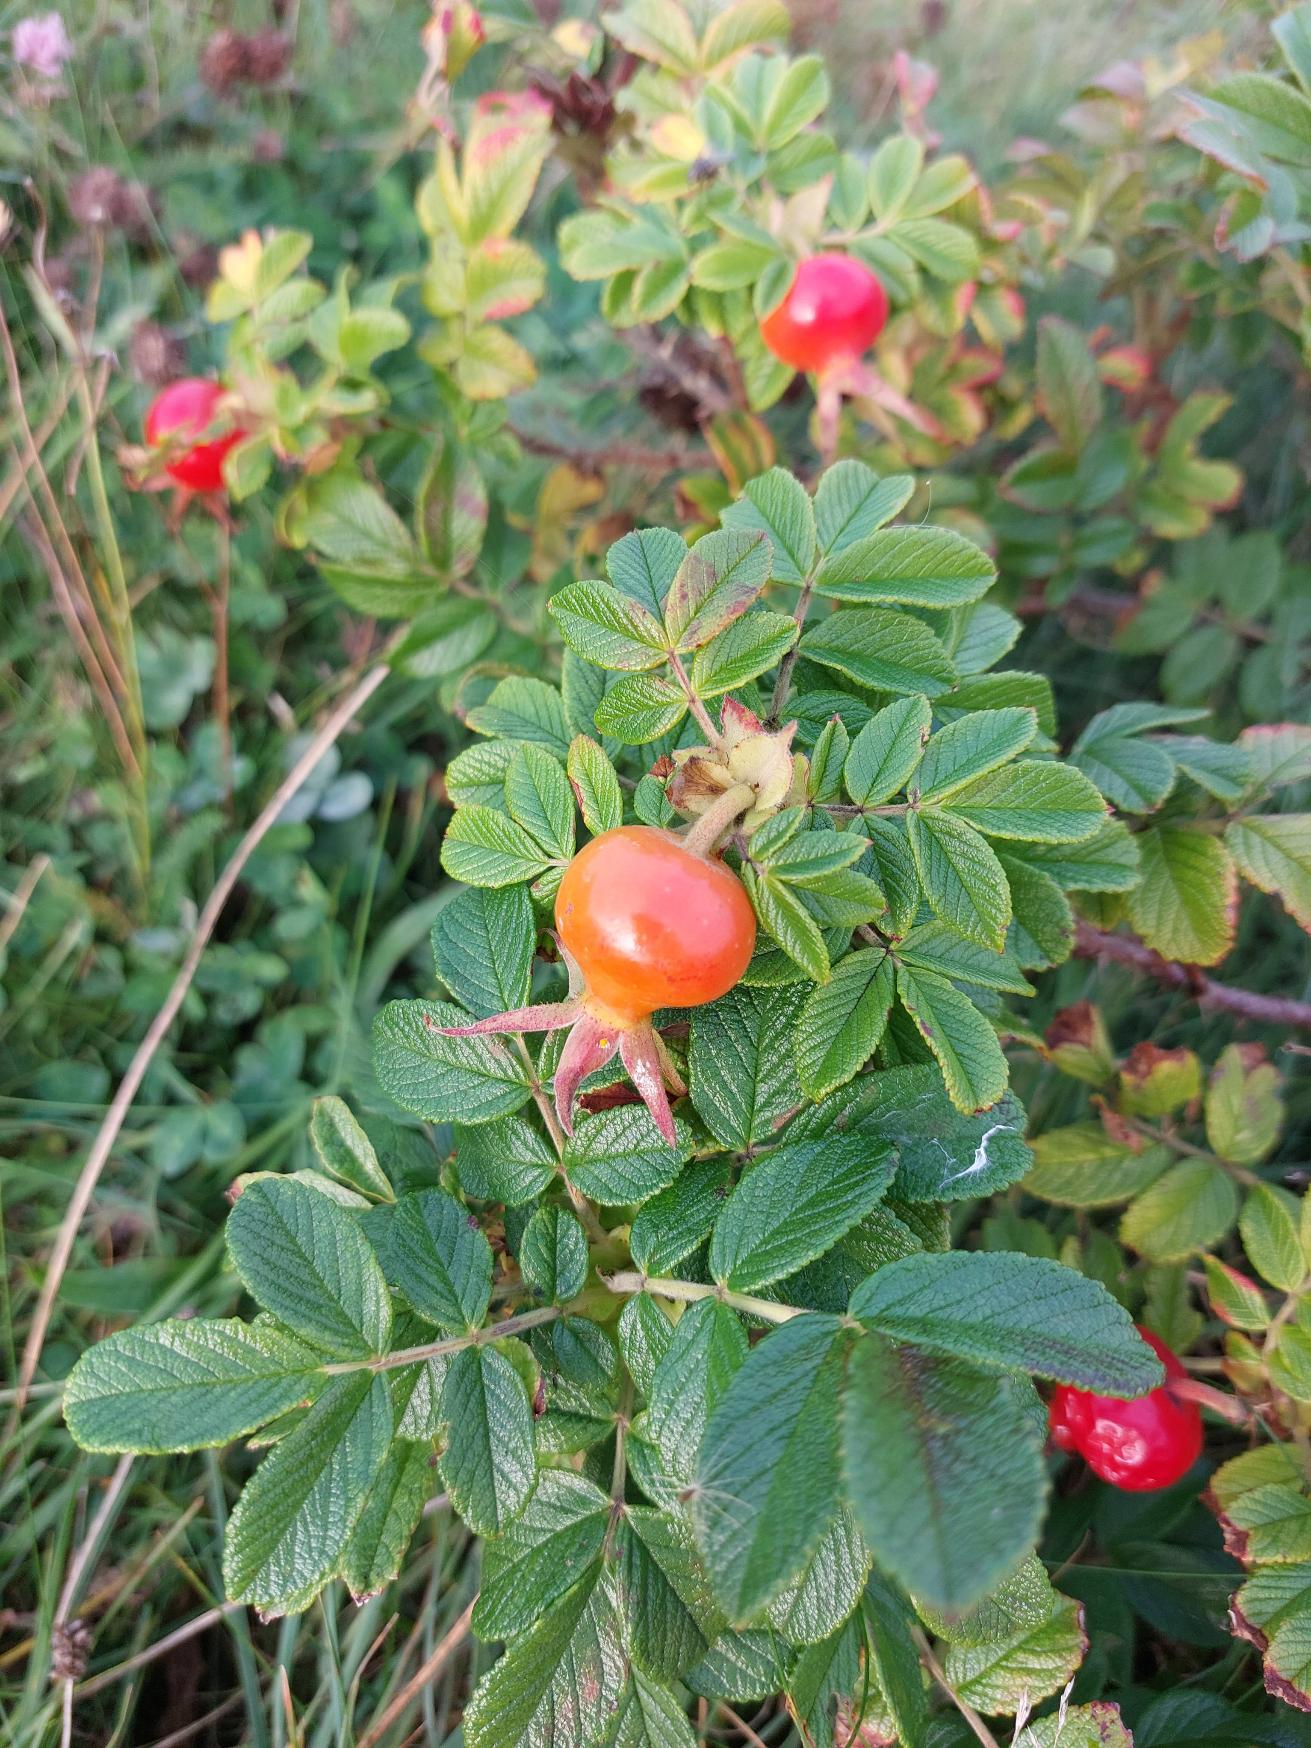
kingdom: Plantae
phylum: Tracheophyta
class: Magnoliopsida
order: Rosales
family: Rosaceae
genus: Rosa
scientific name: Rosa rugosa
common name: Rynket rose
